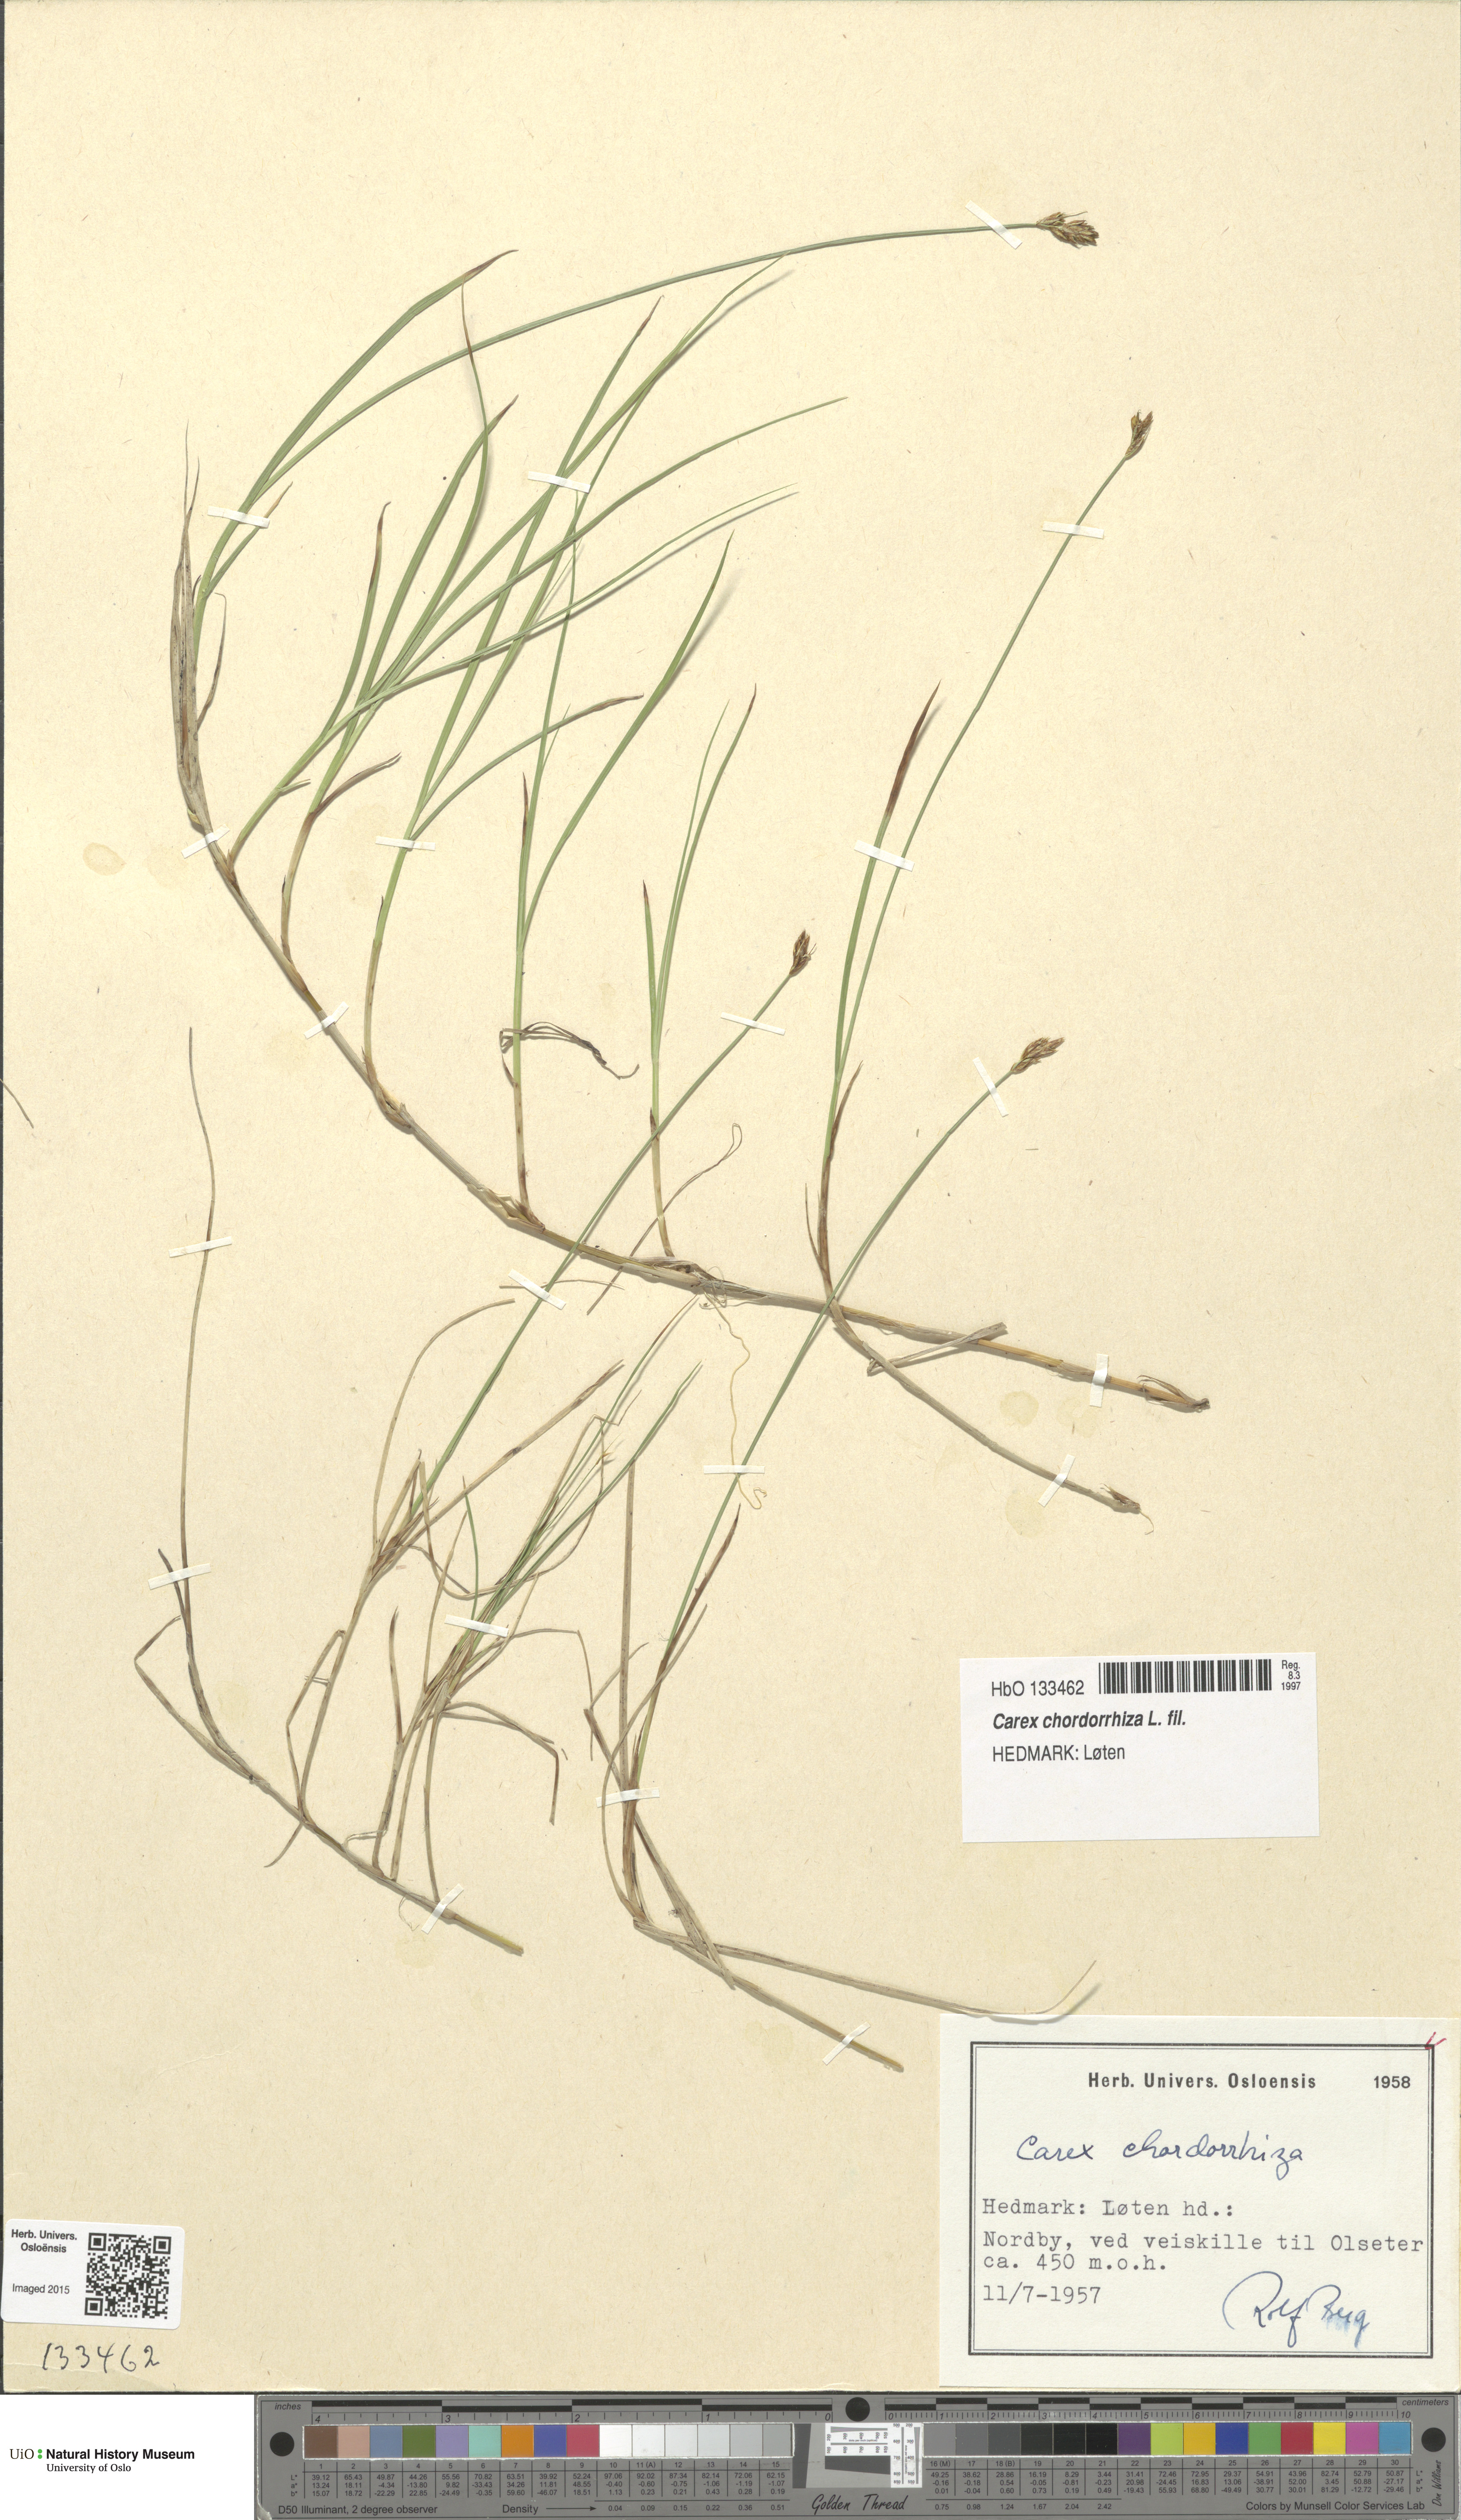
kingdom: Plantae
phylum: Tracheophyta
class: Liliopsida
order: Poales
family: Cyperaceae
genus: Carex
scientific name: Carex chordorrhiza
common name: String sedge
